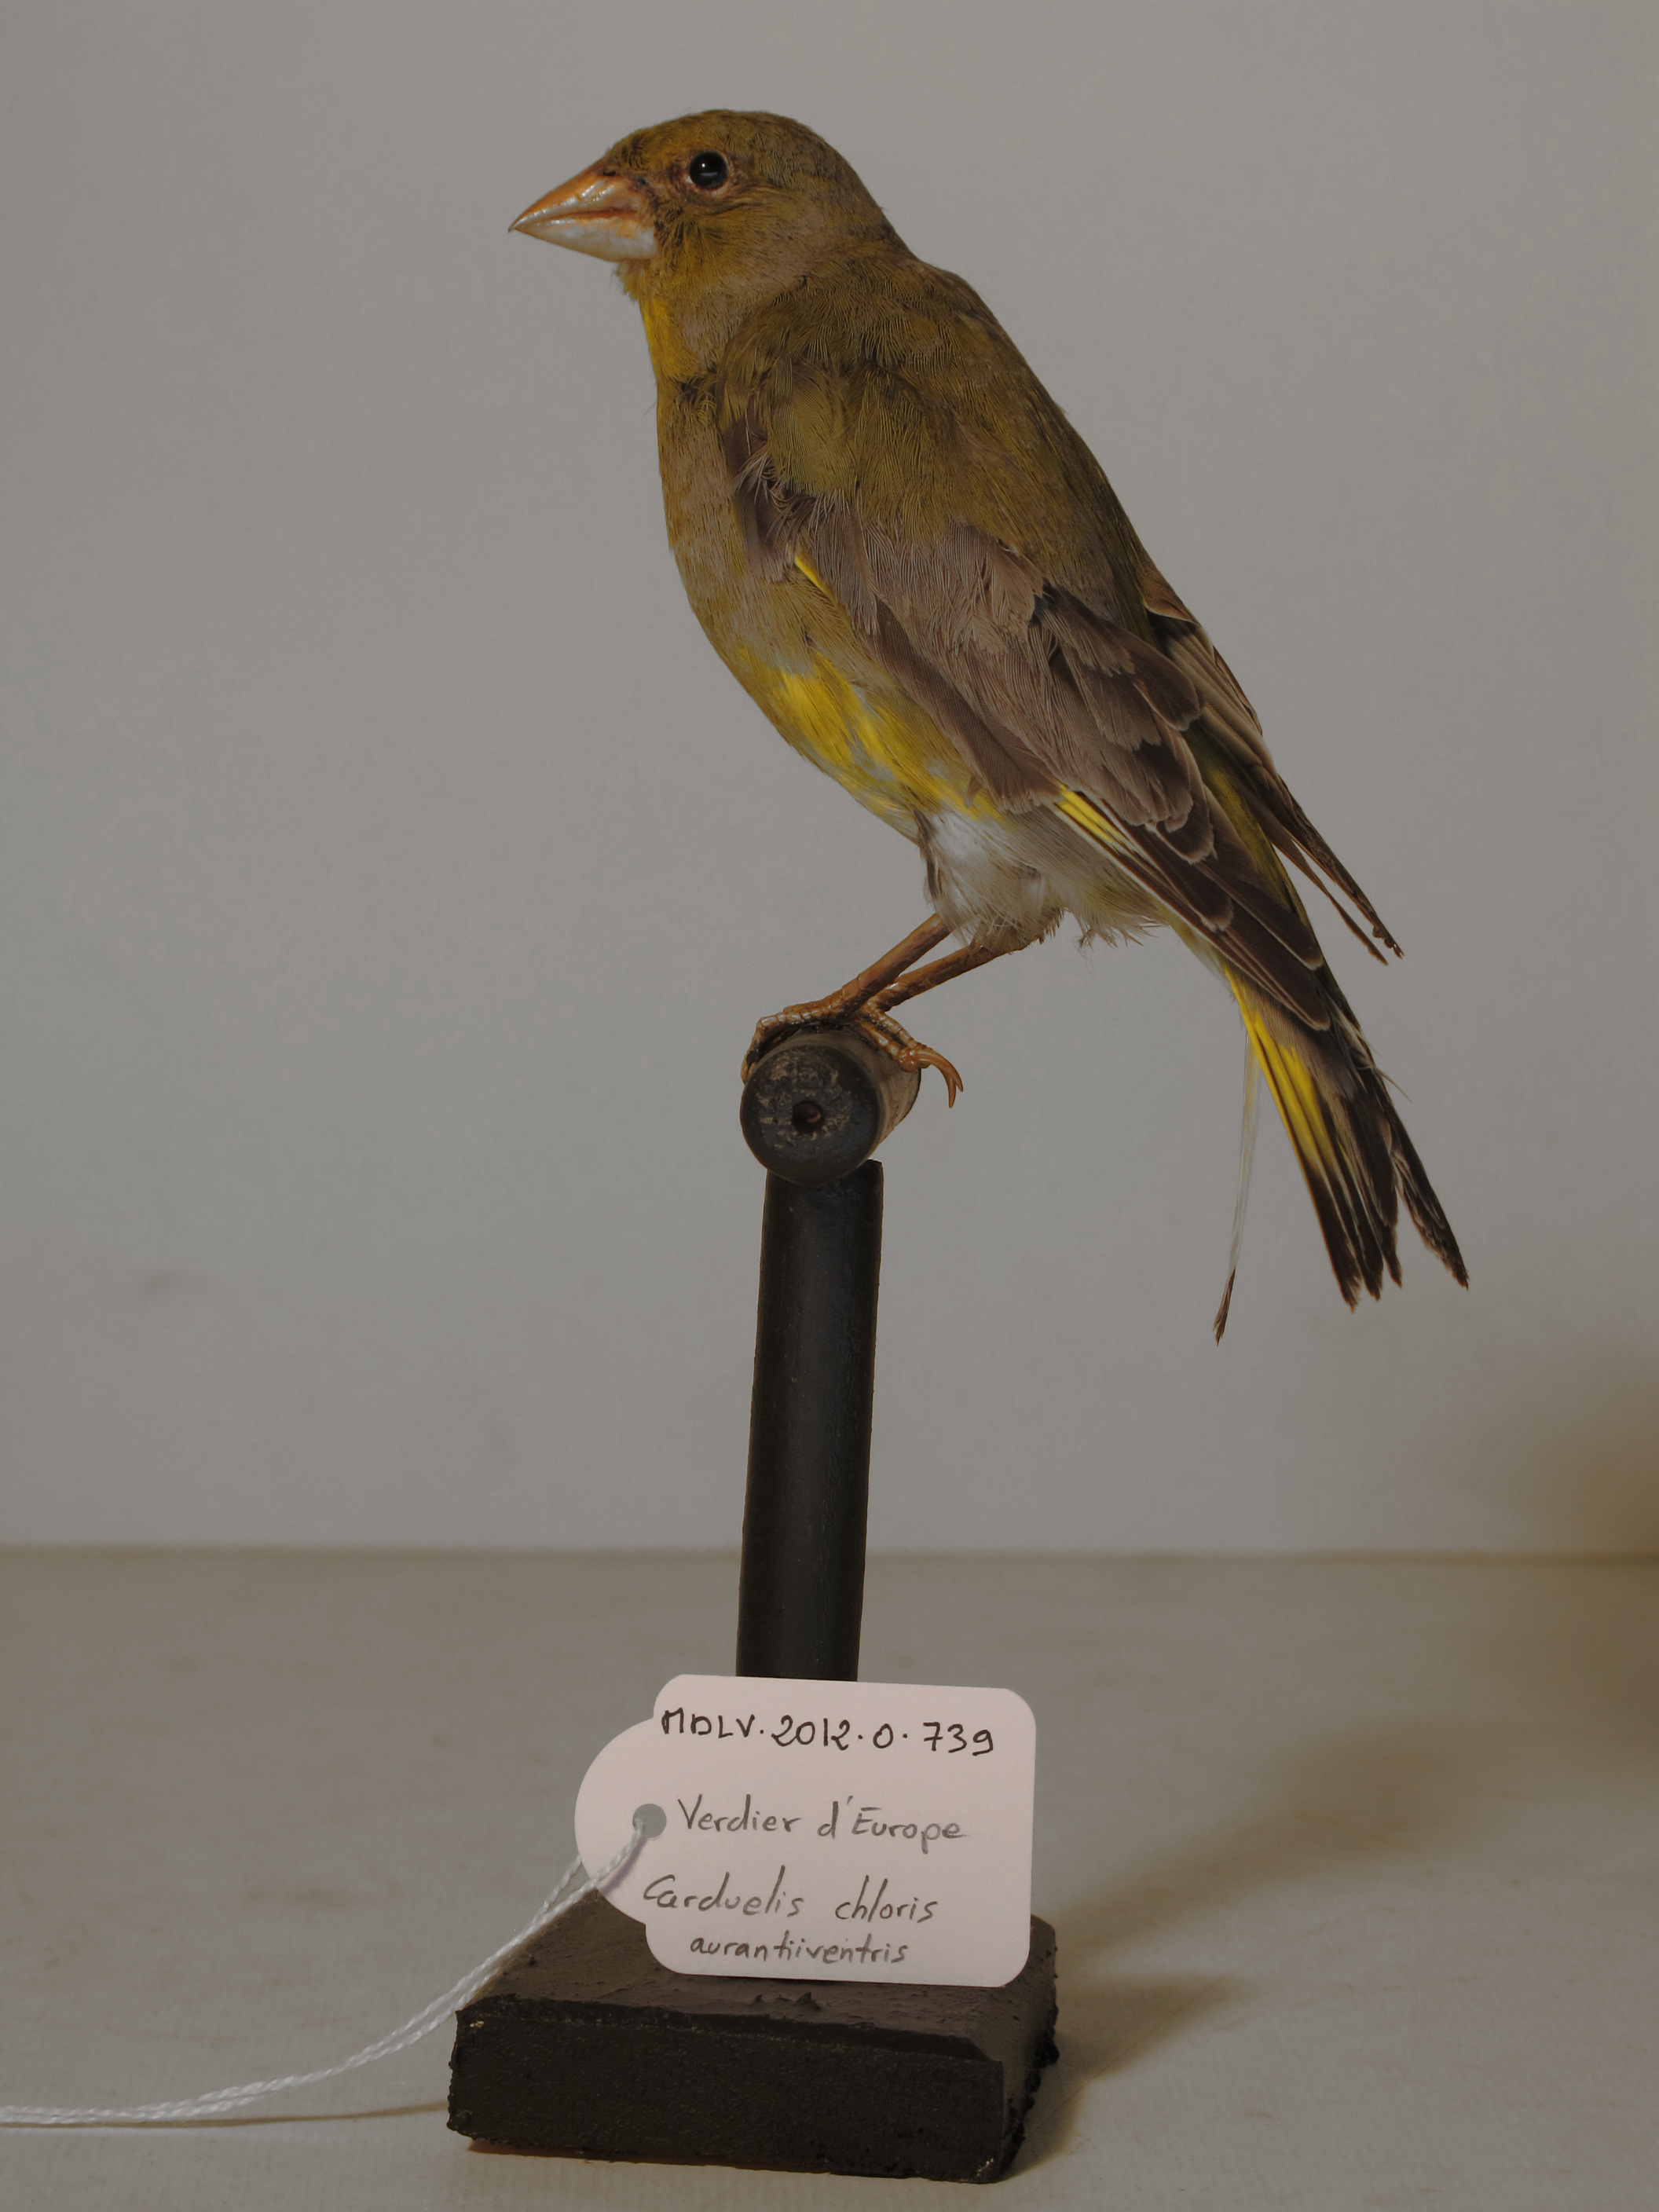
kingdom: Plantae
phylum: Tracheophyta
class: Liliopsida
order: Poales
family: Poaceae
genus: Chloris
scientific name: Chloris chloris
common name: European Greenfinch
